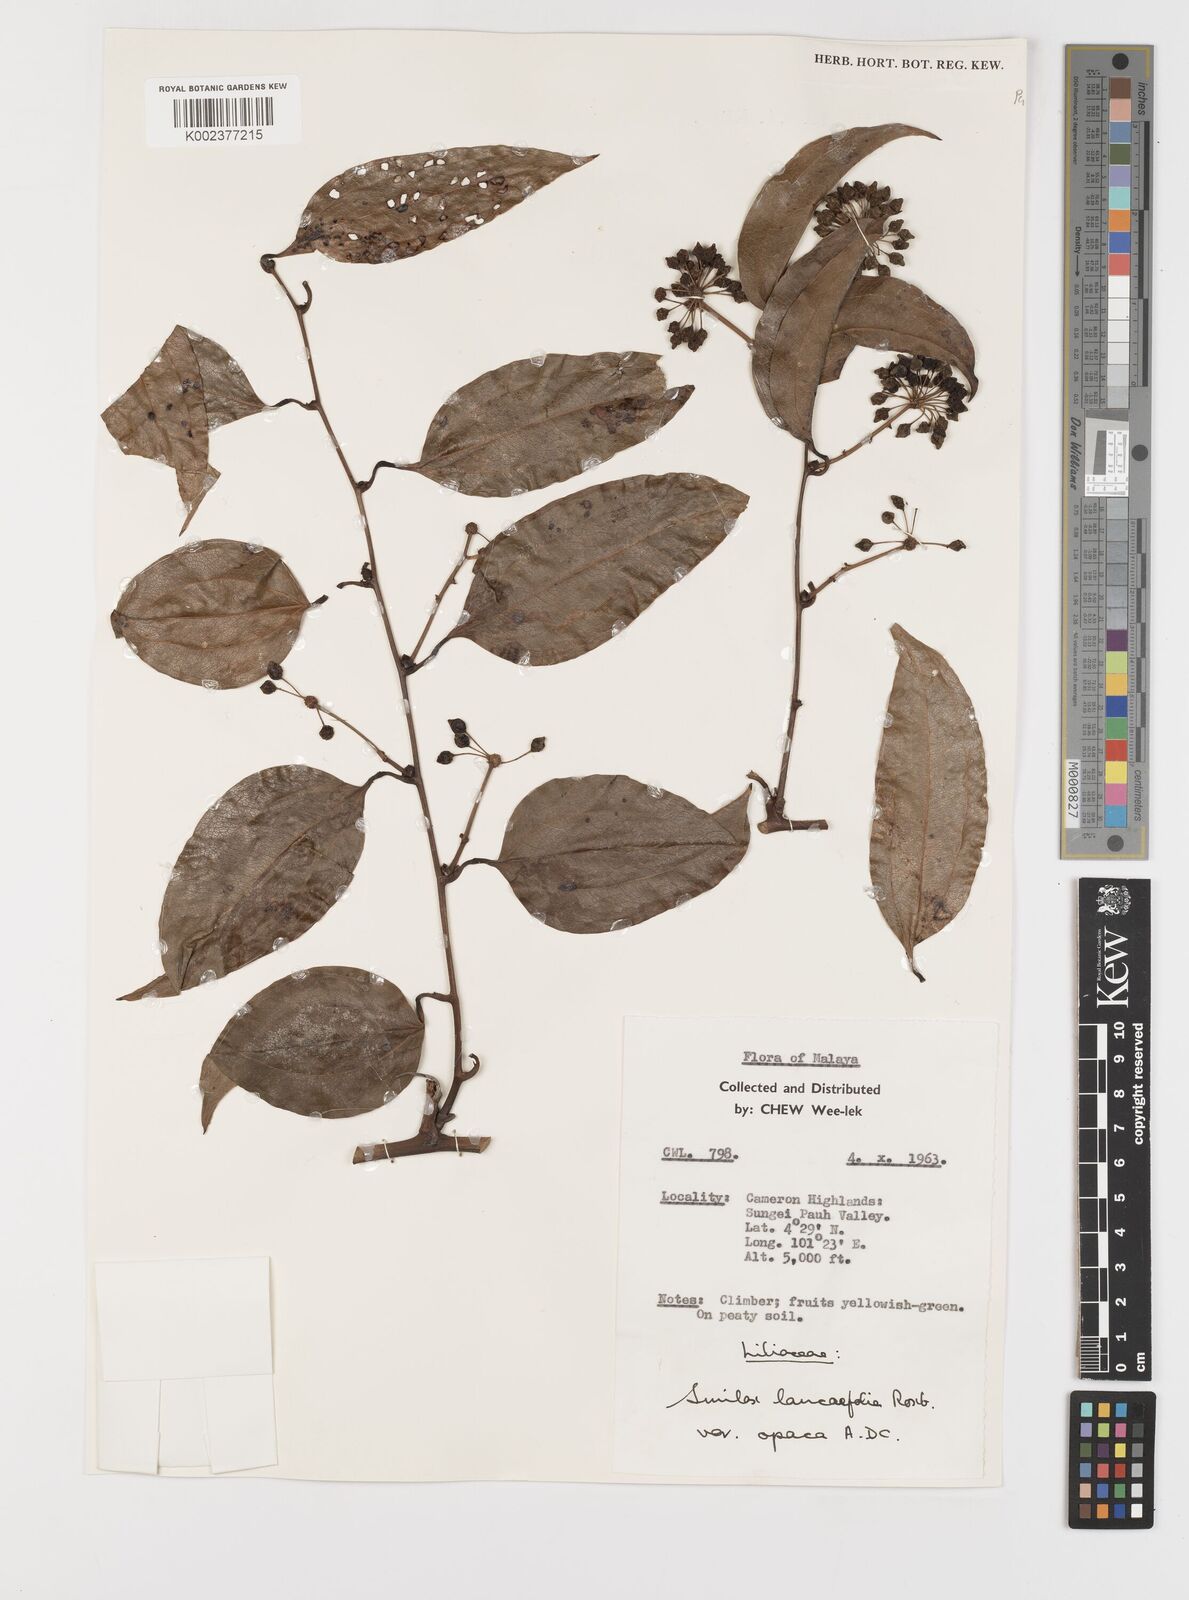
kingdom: Plantae
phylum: Tracheophyta
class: Liliopsida
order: Liliales
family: Smilacaceae
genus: Smilax
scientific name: Smilax laevis
